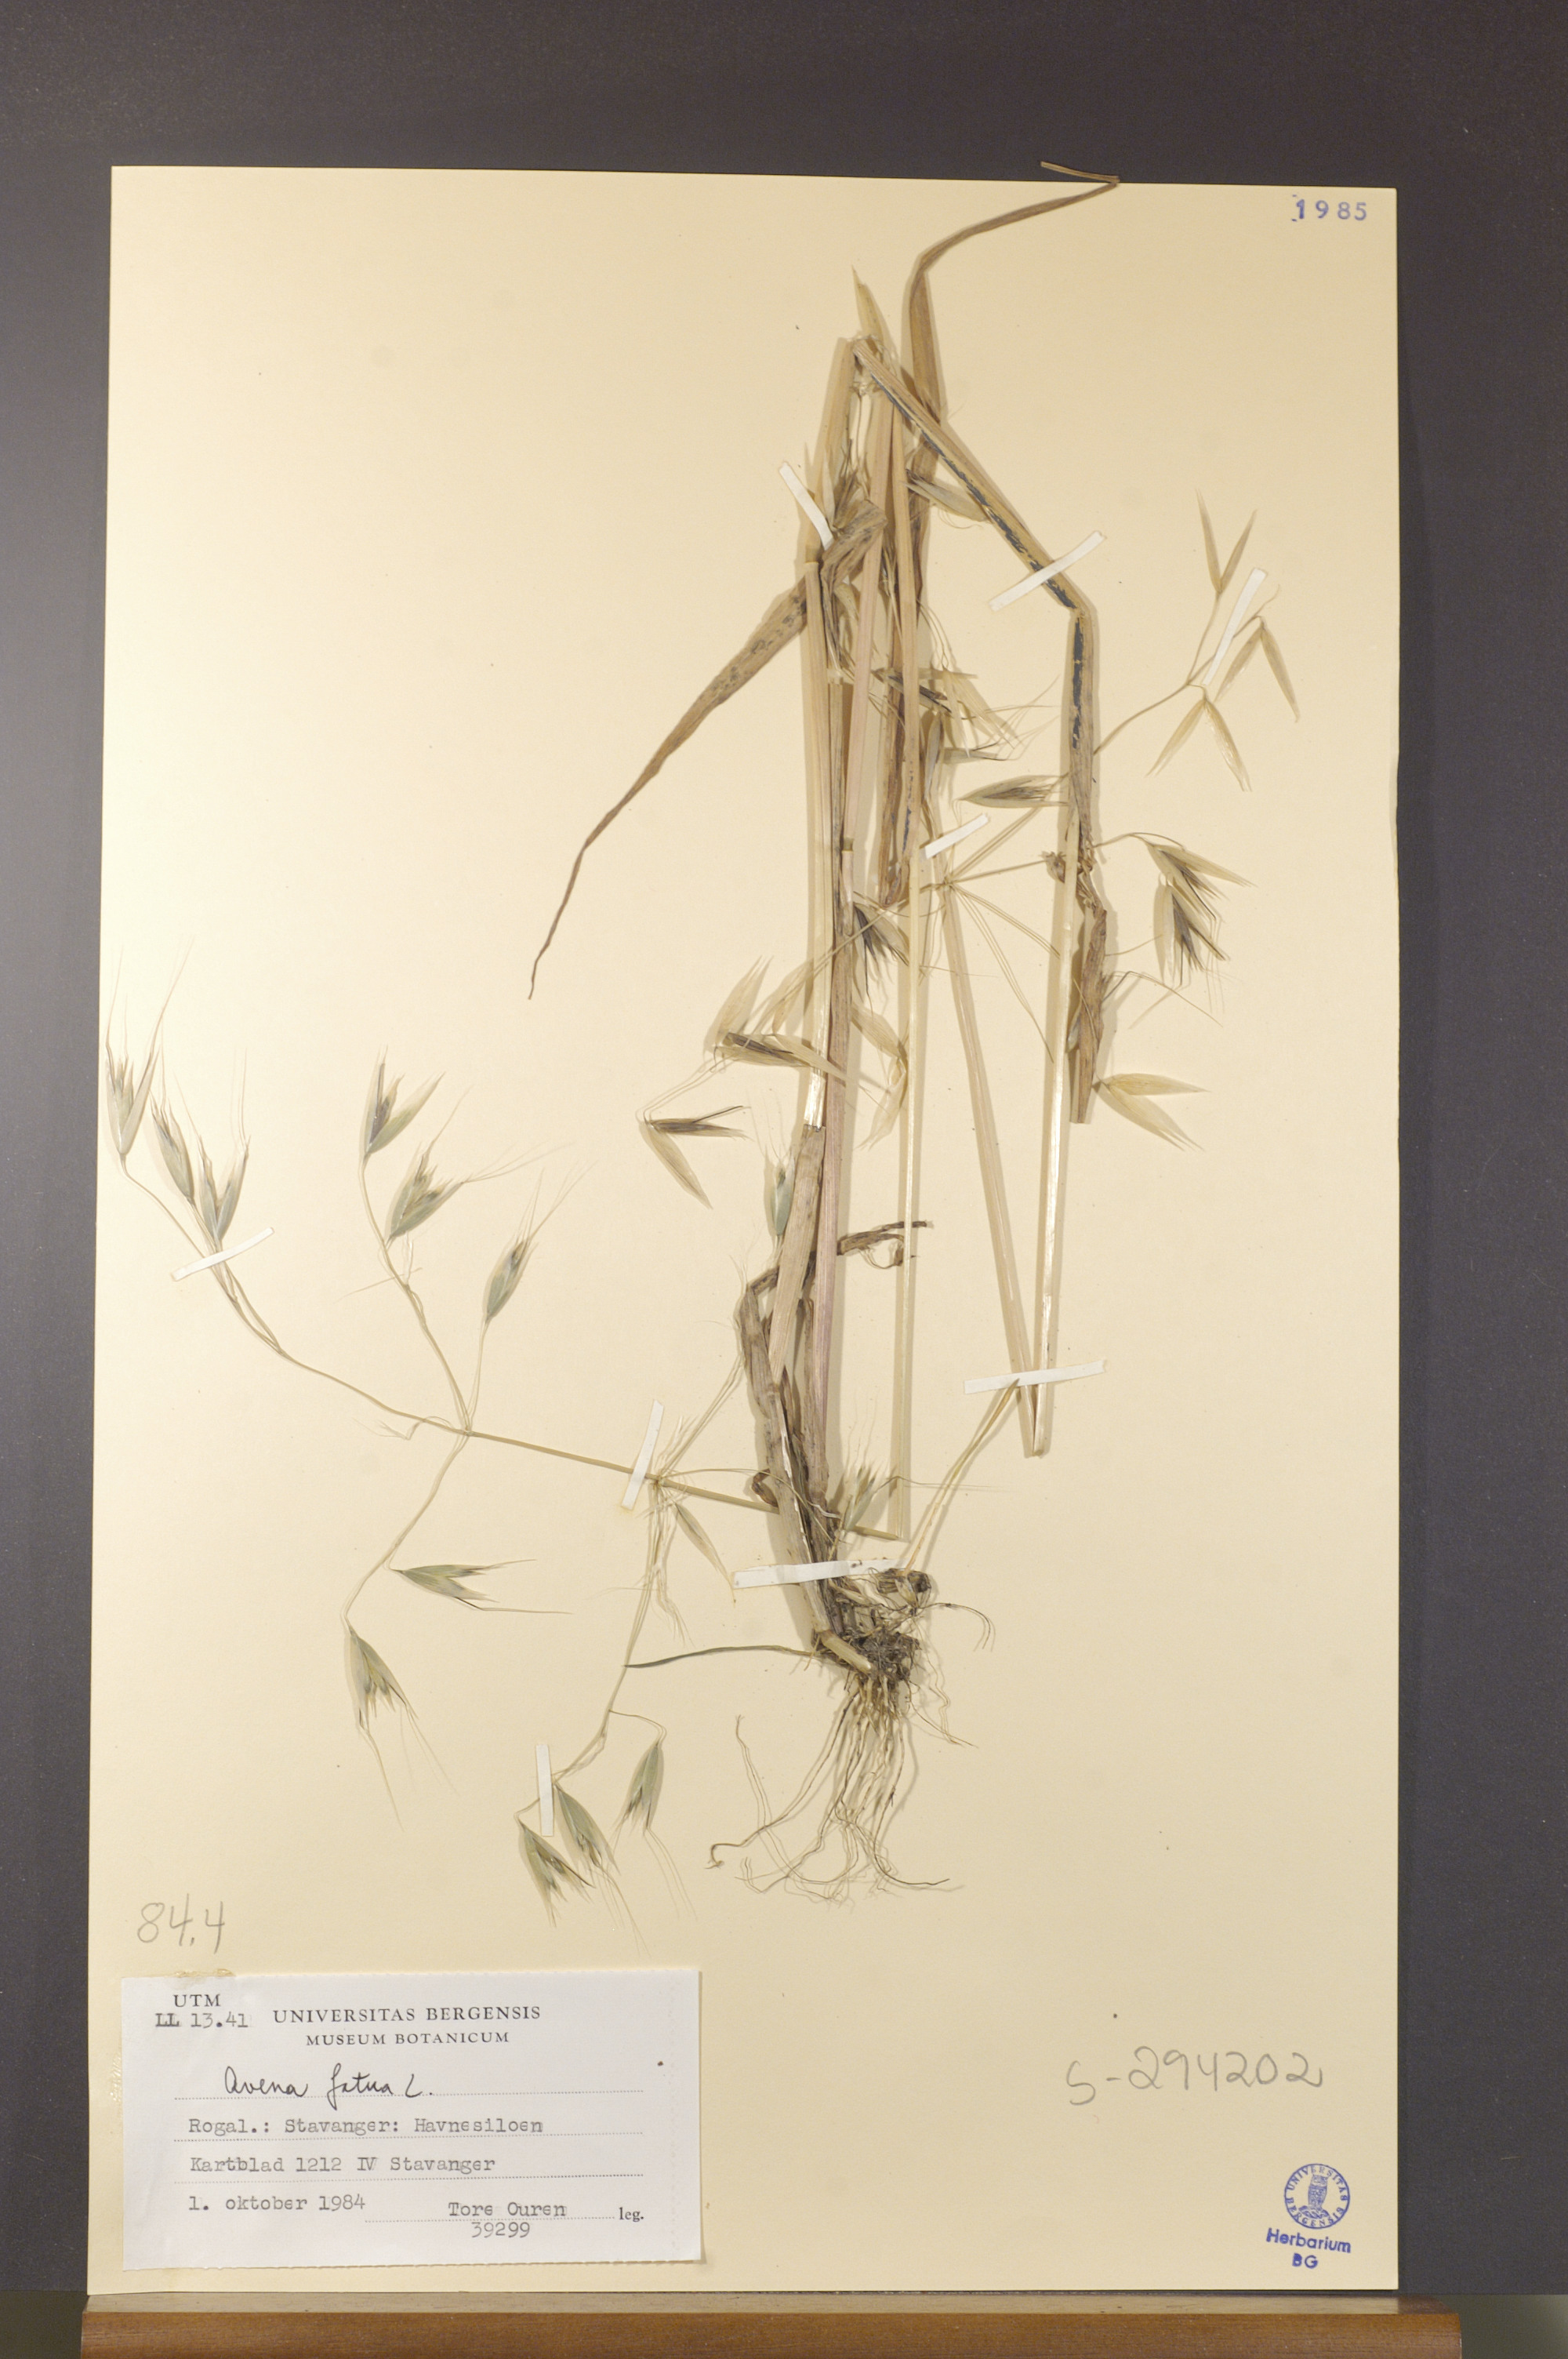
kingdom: Plantae
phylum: Tracheophyta
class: Liliopsida
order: Poales
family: Poaceae
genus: Avena
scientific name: Avena fatua
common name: Wild oat
